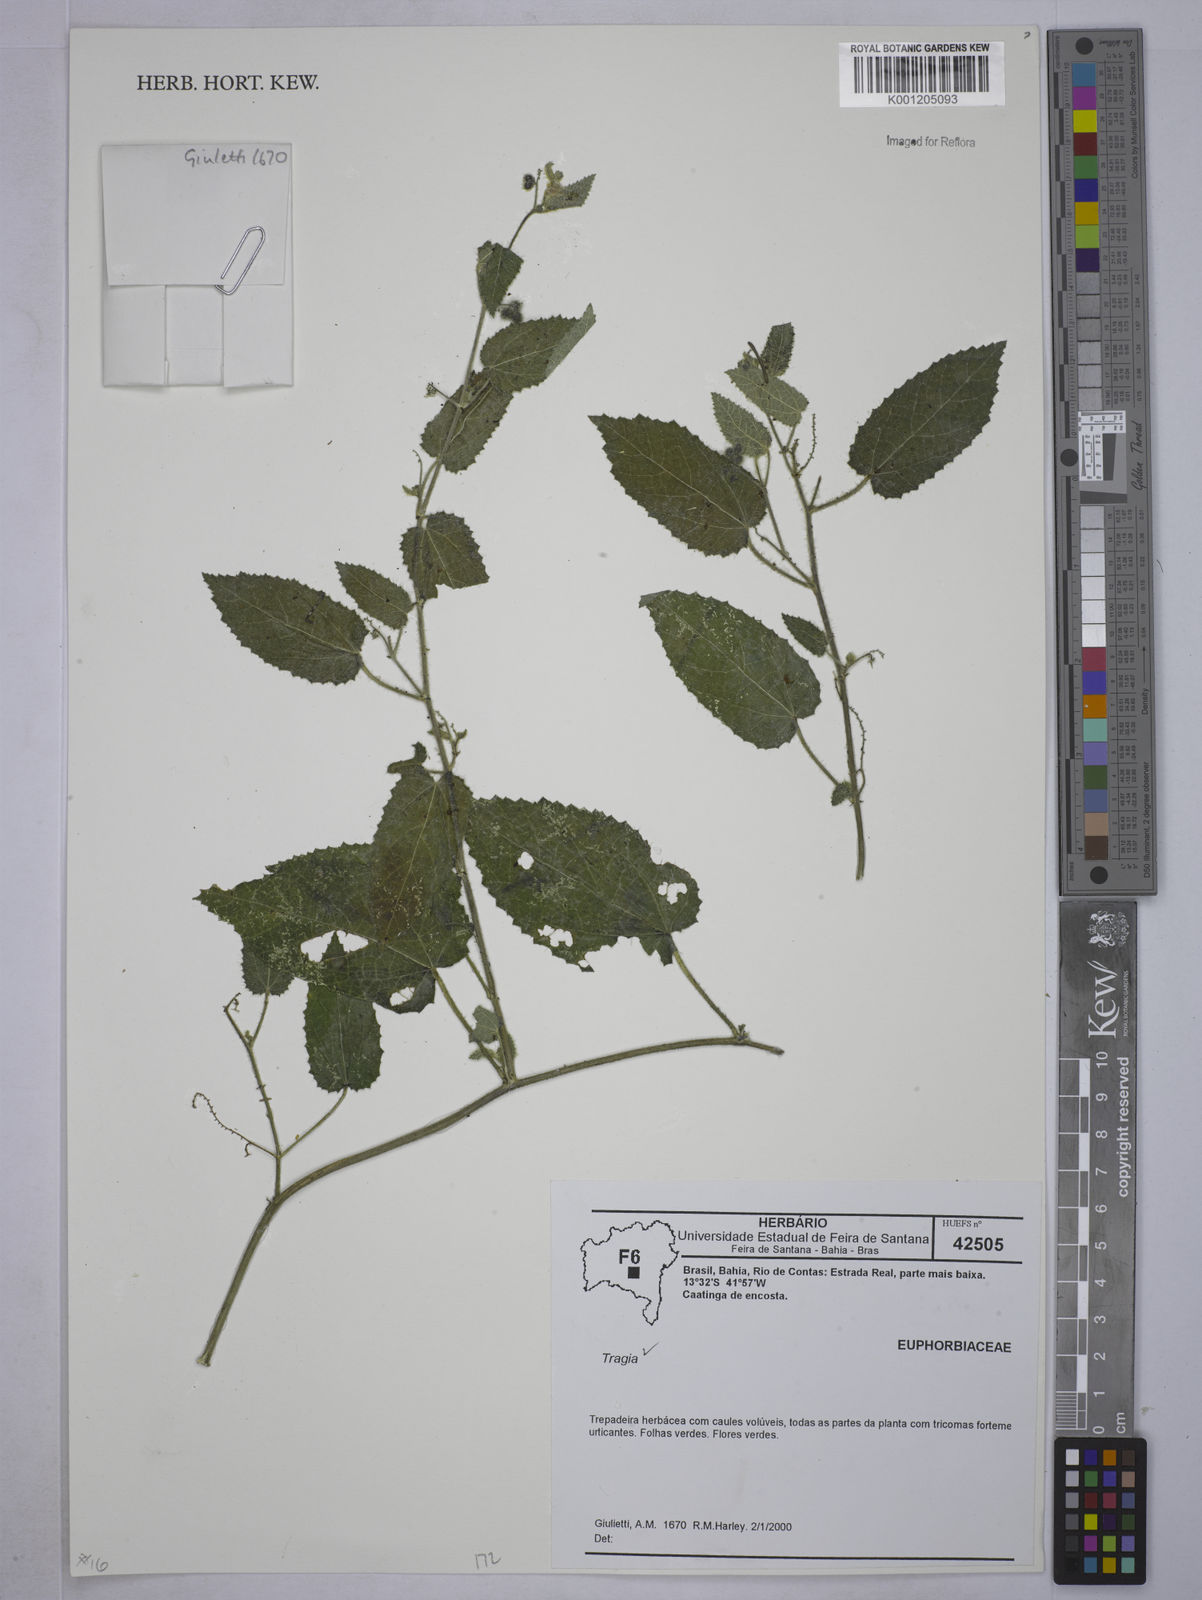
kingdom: Plantae
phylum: Tracheophyta
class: Magnoliopsida
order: Malpighiales
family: Euphorbiaceae
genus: Tragia
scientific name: Tragia
